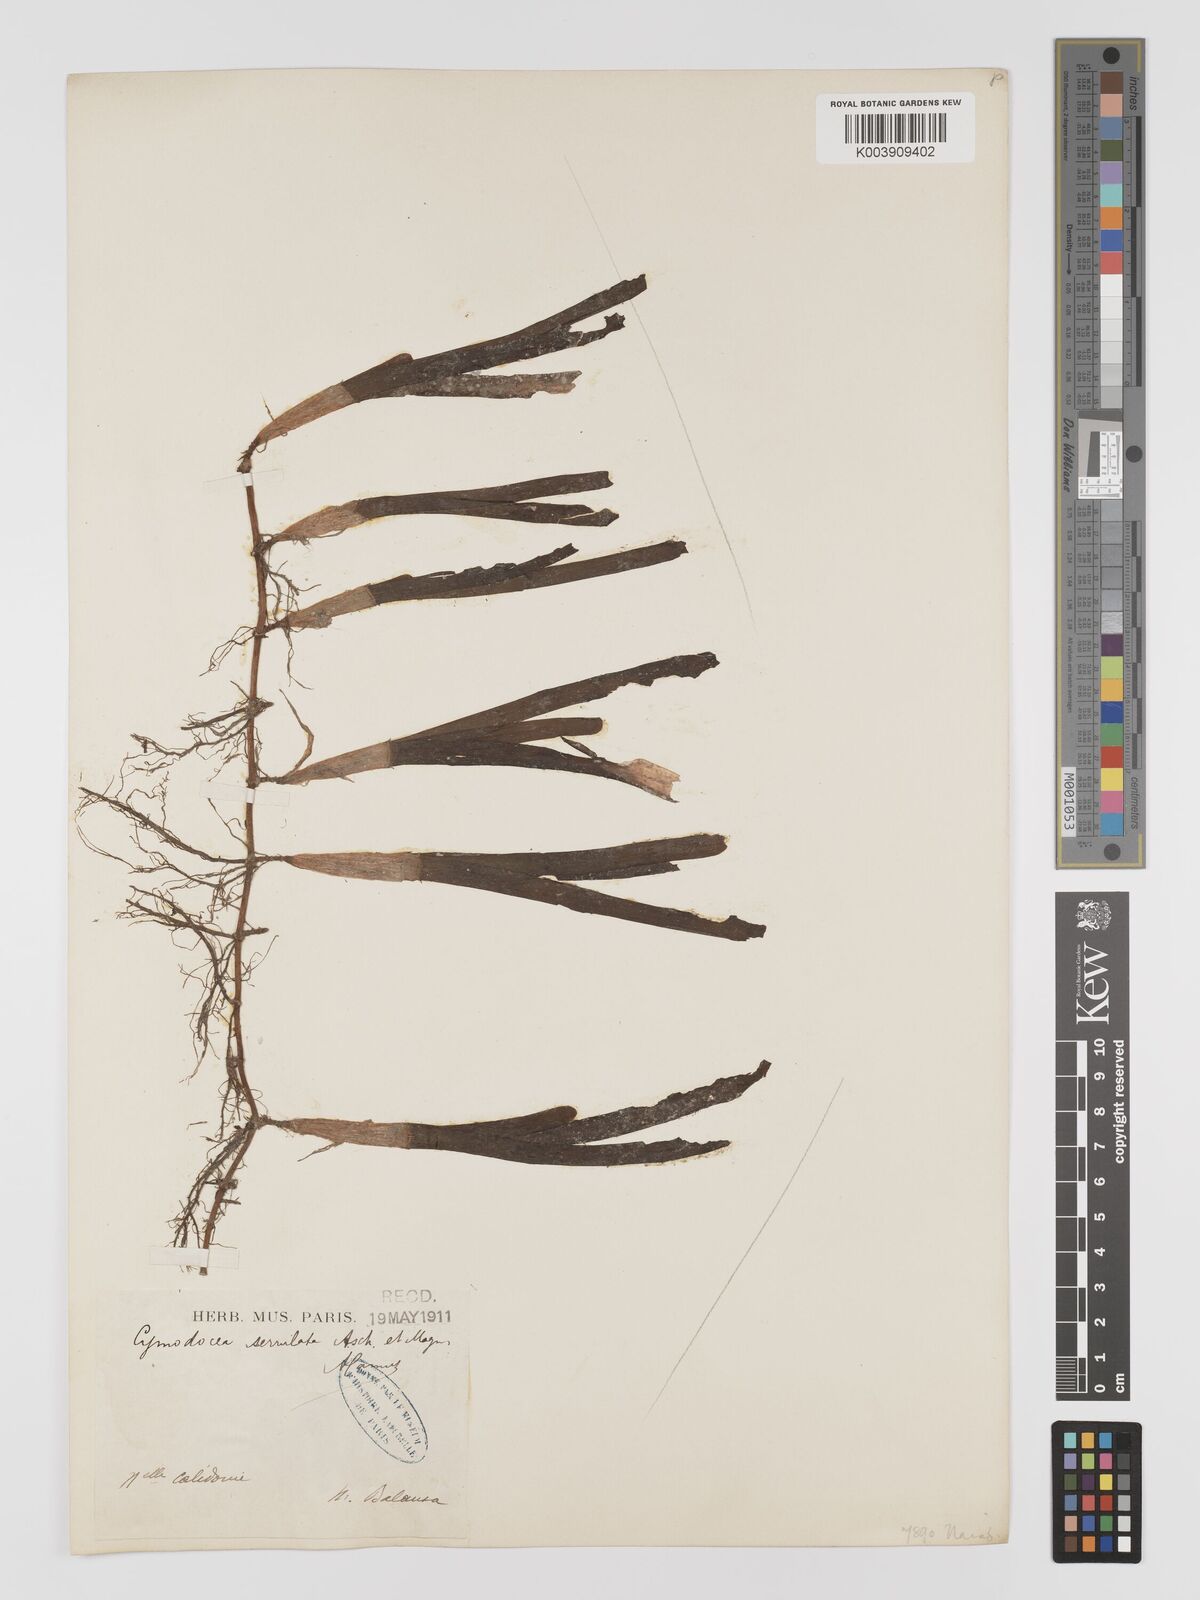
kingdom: Plantae
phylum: Tracheophyta
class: Liliopsida
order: Alismatales
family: Cymodoceaceae
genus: Oceana
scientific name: Oceana serrulata
